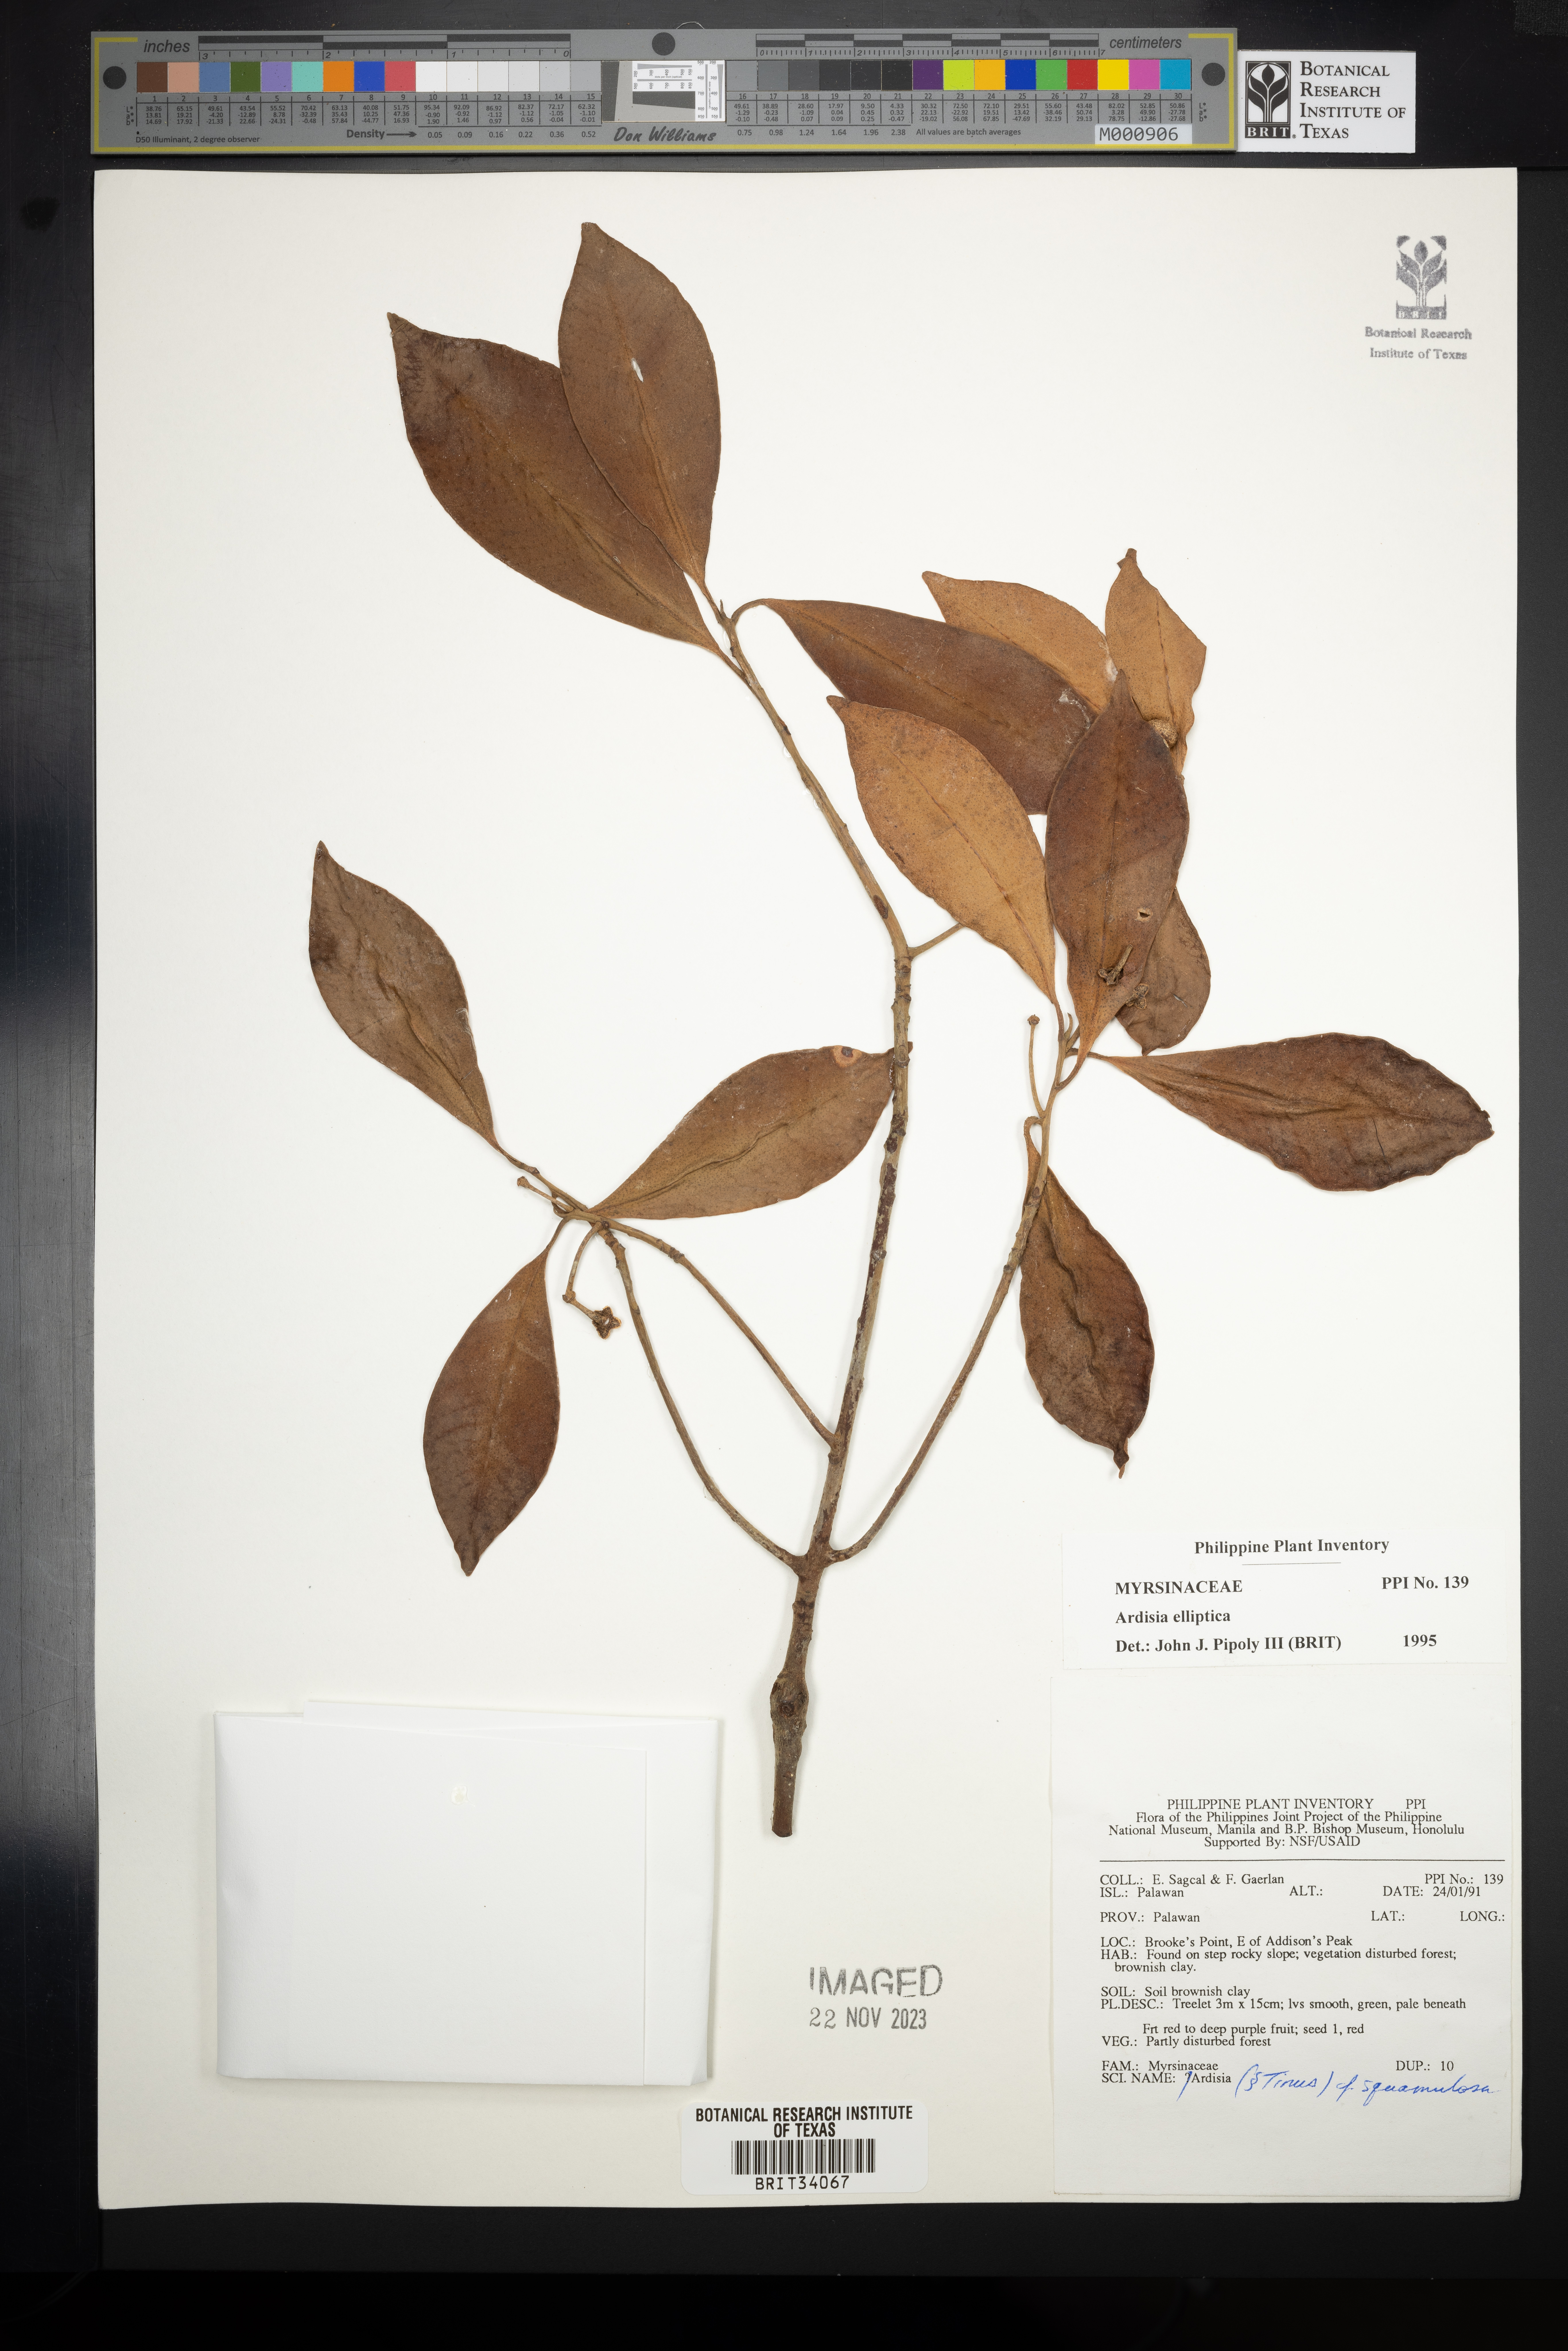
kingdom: Plantae
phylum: Tracheophyta
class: Magnoliopsida
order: Ericales
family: Primulaceae
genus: Ardisia
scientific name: Ardisia elliptica
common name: Shoebutton
